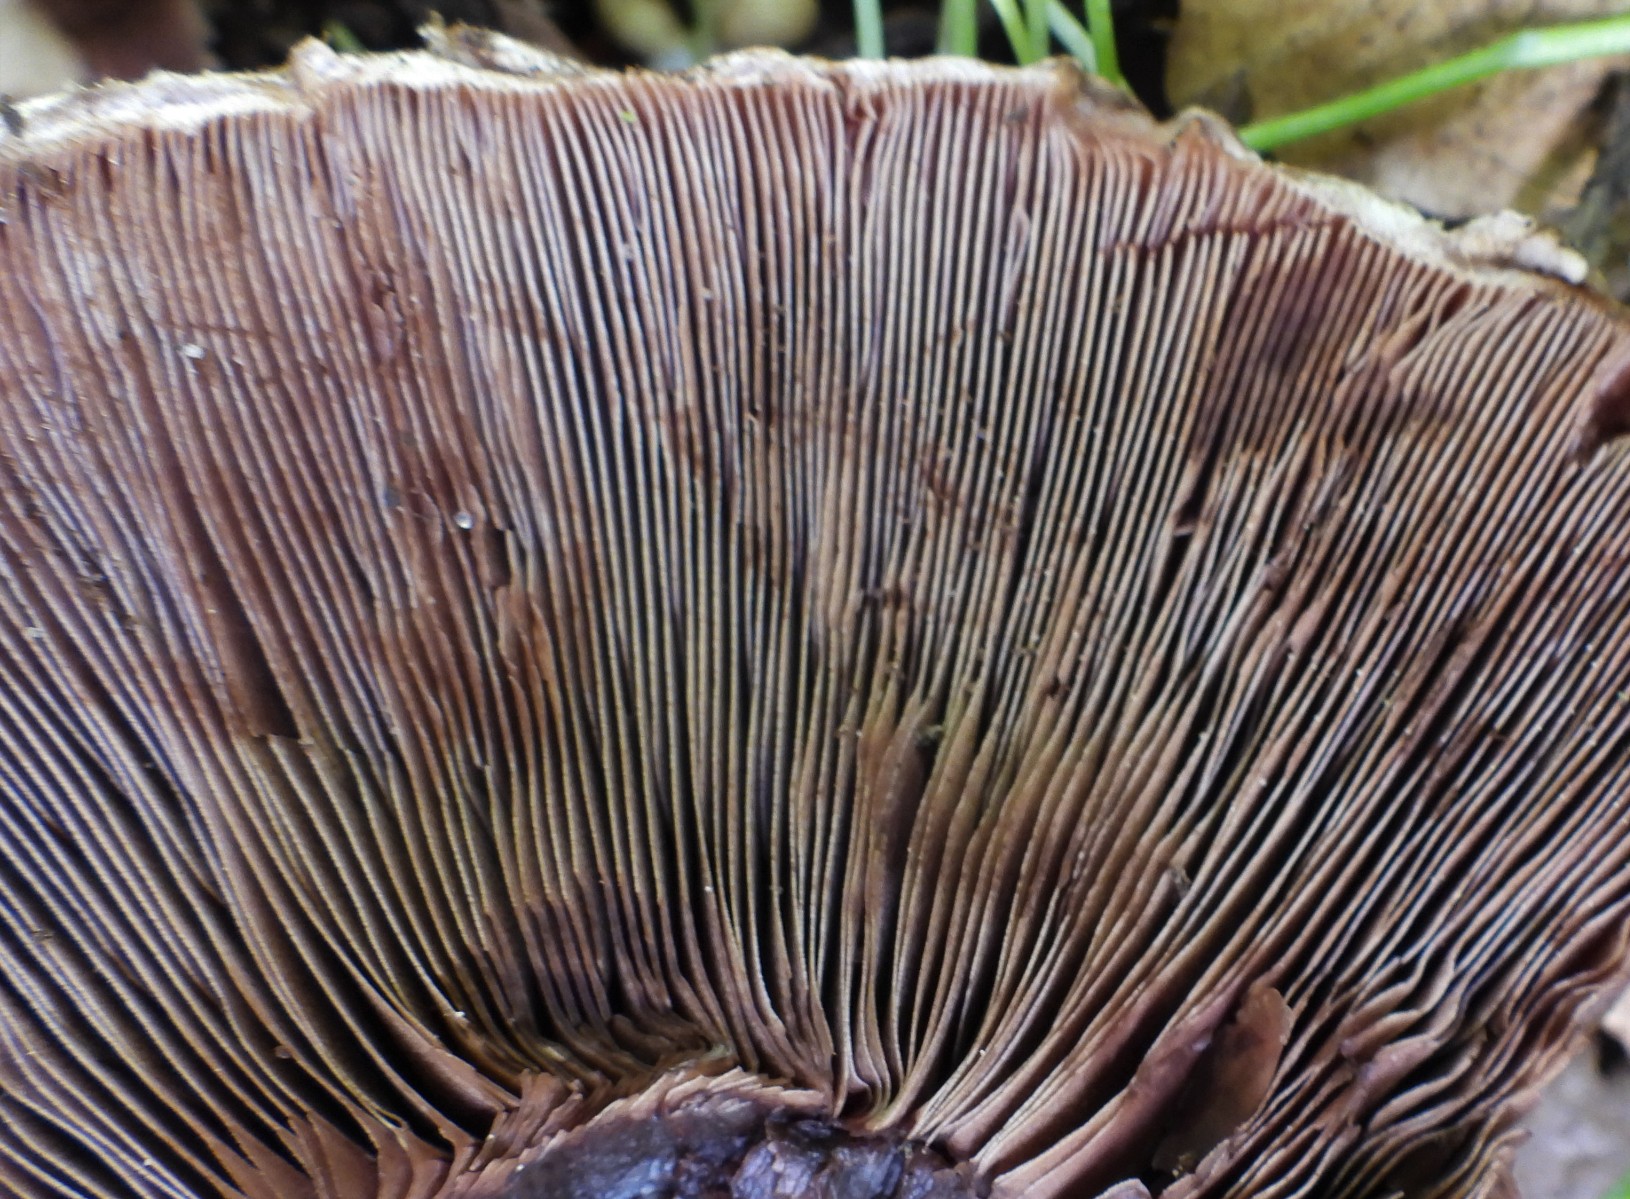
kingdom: Fungi
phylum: Basidiomycota
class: Agaricomycetes
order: Agaricales
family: Agaricaceae
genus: Agaricus
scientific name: Agaricus
